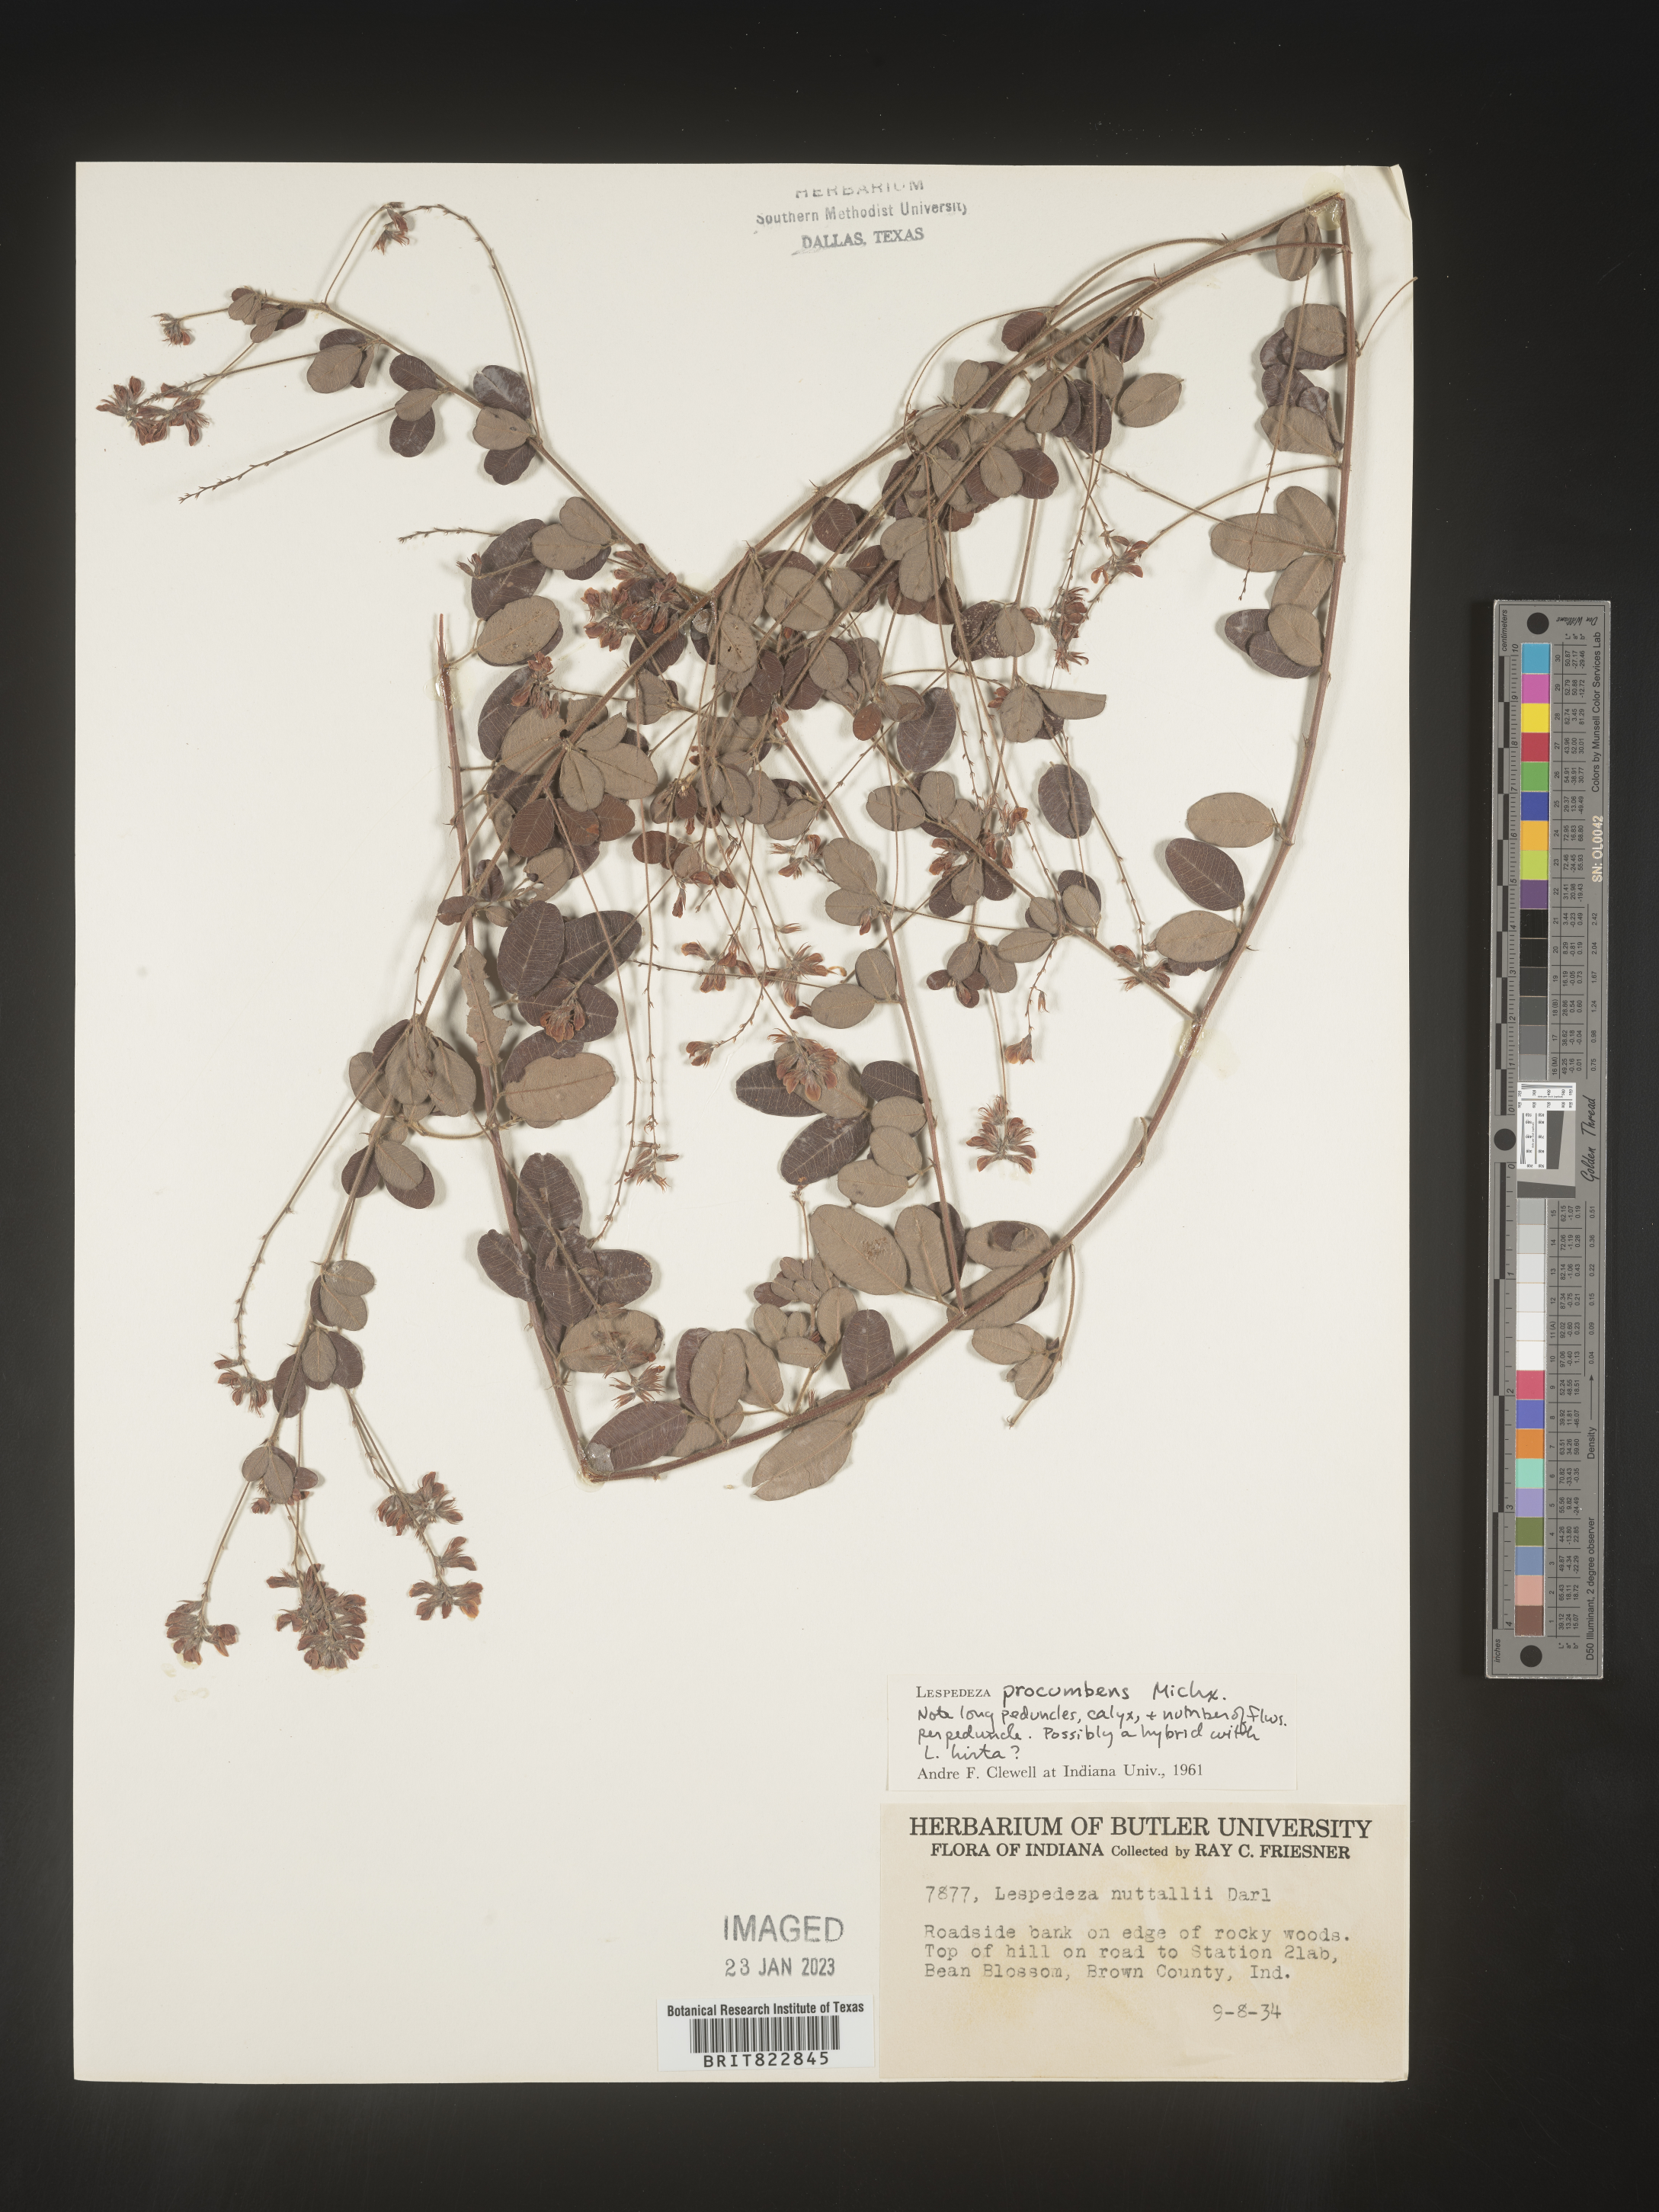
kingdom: Plantae
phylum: Tracheophyta
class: Magnoliopsida
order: Fabales
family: Fabaceae
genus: Lespedeza
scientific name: Lespedeza procumbens
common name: Downy trailing bush-clover
